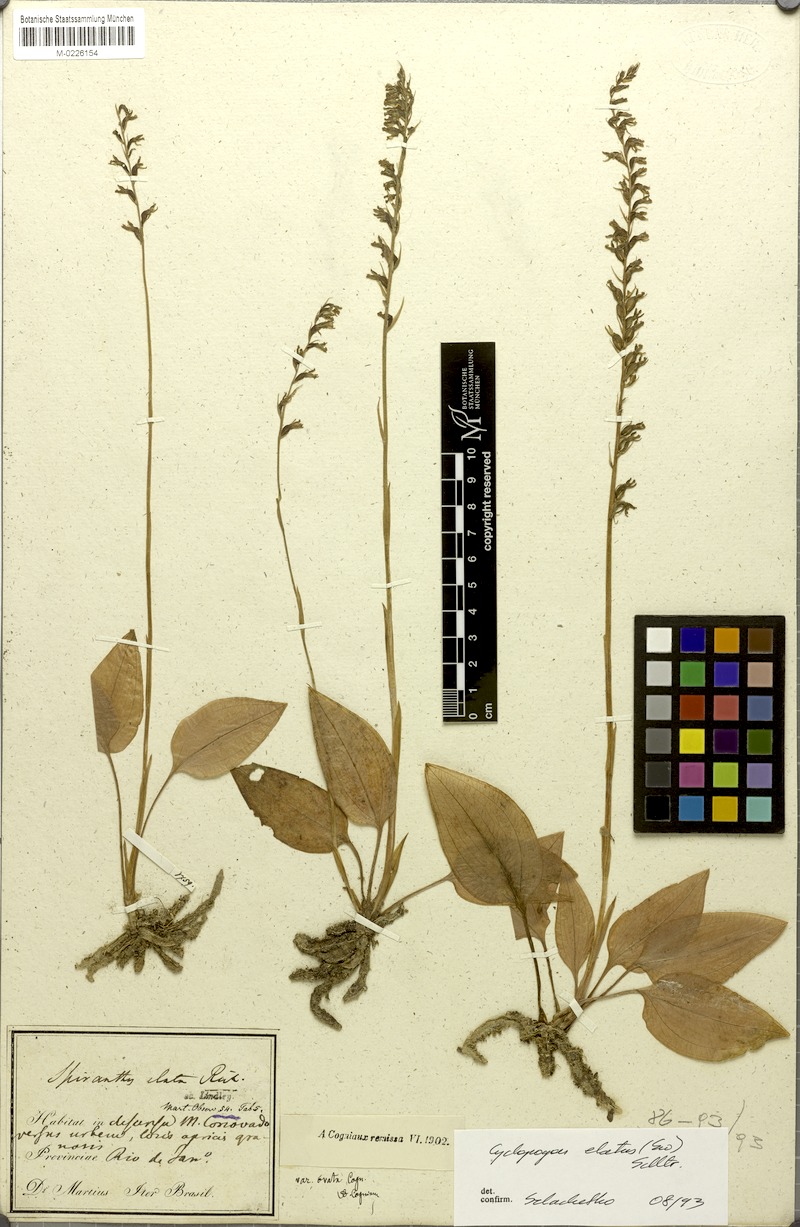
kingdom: Plantae
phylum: Tracheophyta
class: Liliopsida
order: Asparagales
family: Orchidaceae
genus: Cyclopogon
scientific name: Cyclopogon elatus
